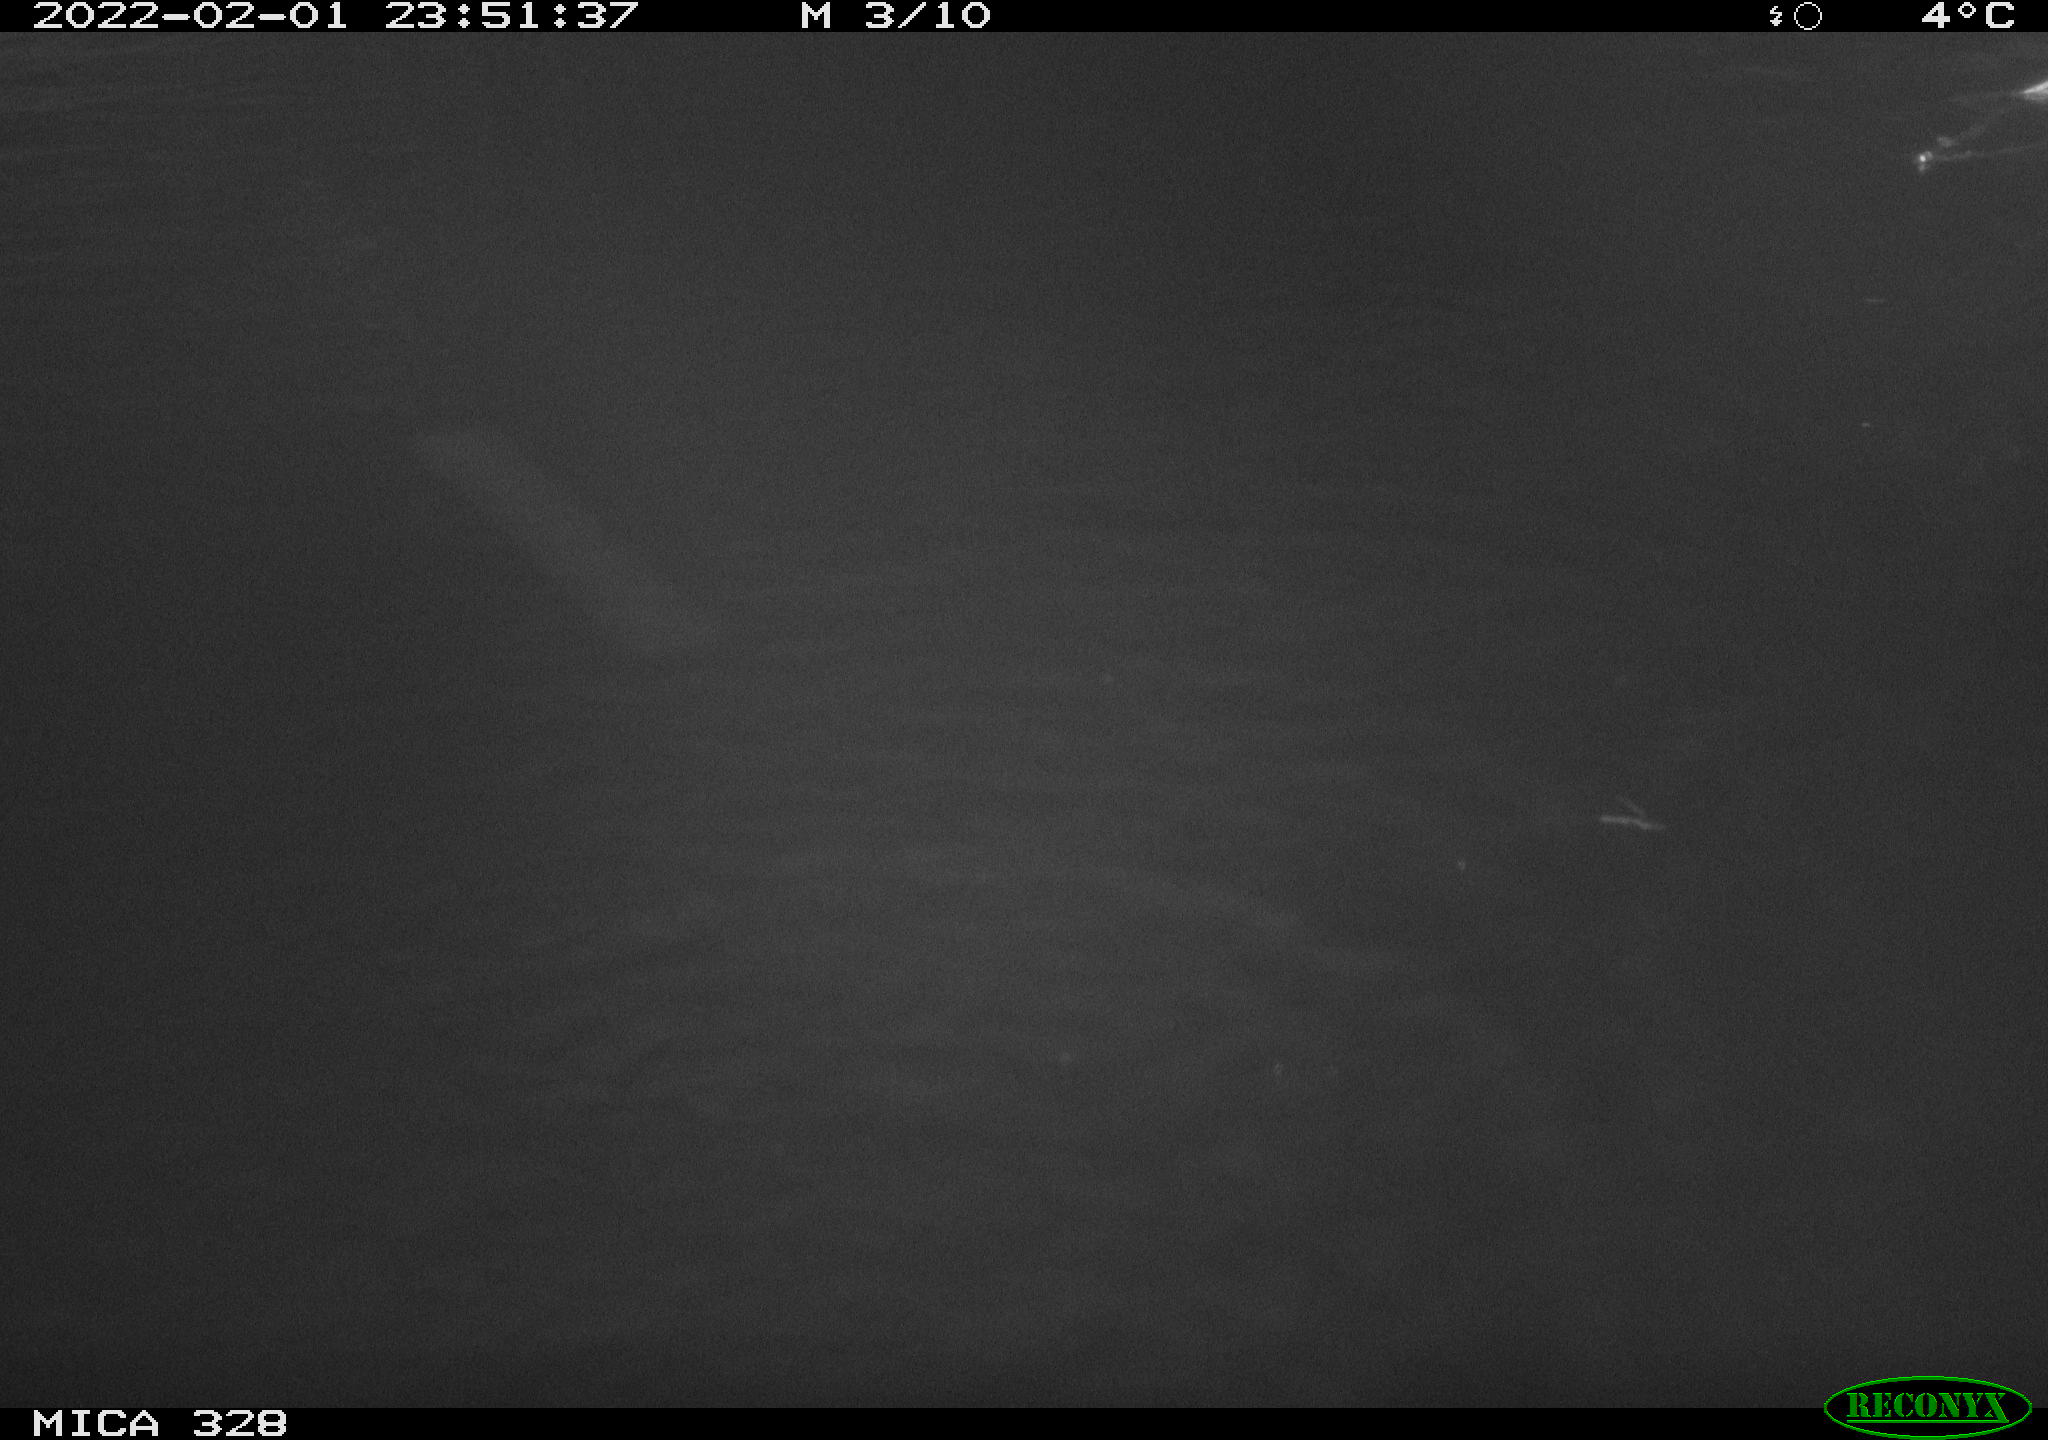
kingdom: Animalia
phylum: Chordata
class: Mammalia
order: Rodentia
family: Cricetidae
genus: Ondatra
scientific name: Ondatra zibethicus
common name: Muskrat
